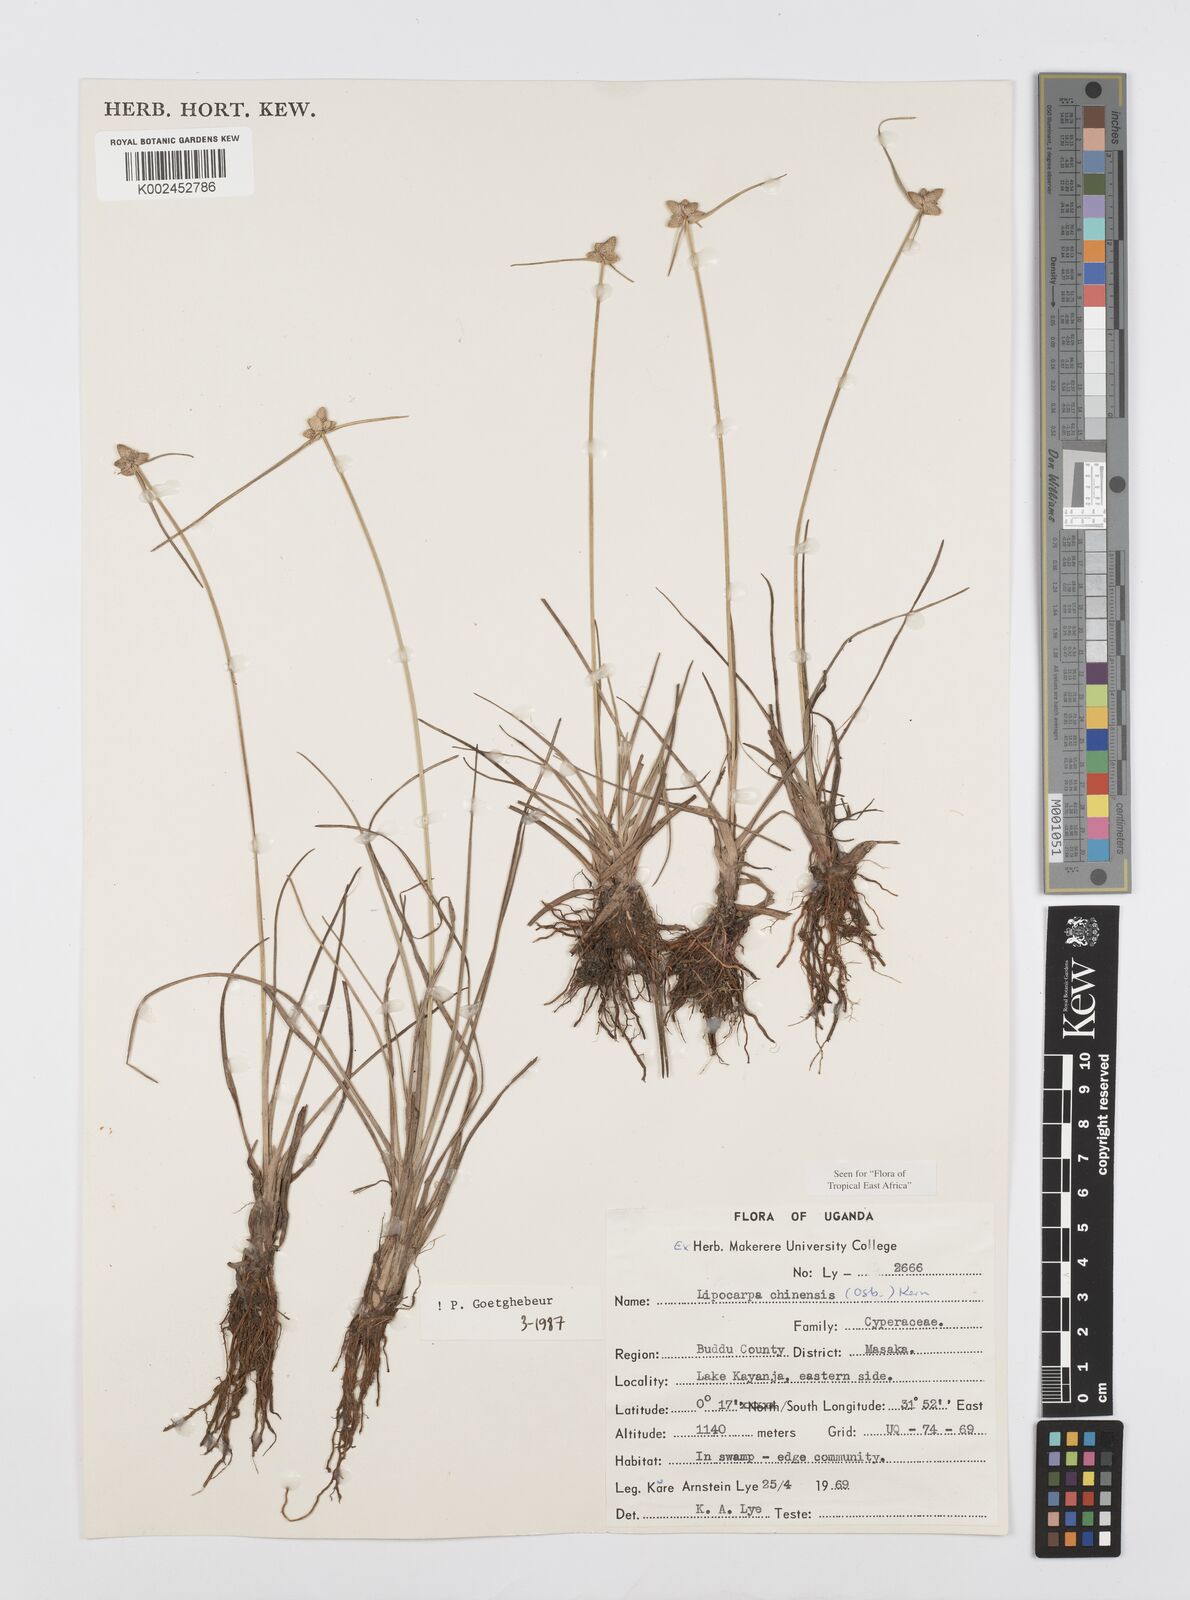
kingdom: Plantae
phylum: Tracheophyta
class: Liliopsida
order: Poales
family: Cyperaceae
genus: Cyperus
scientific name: Cyperus albescens
